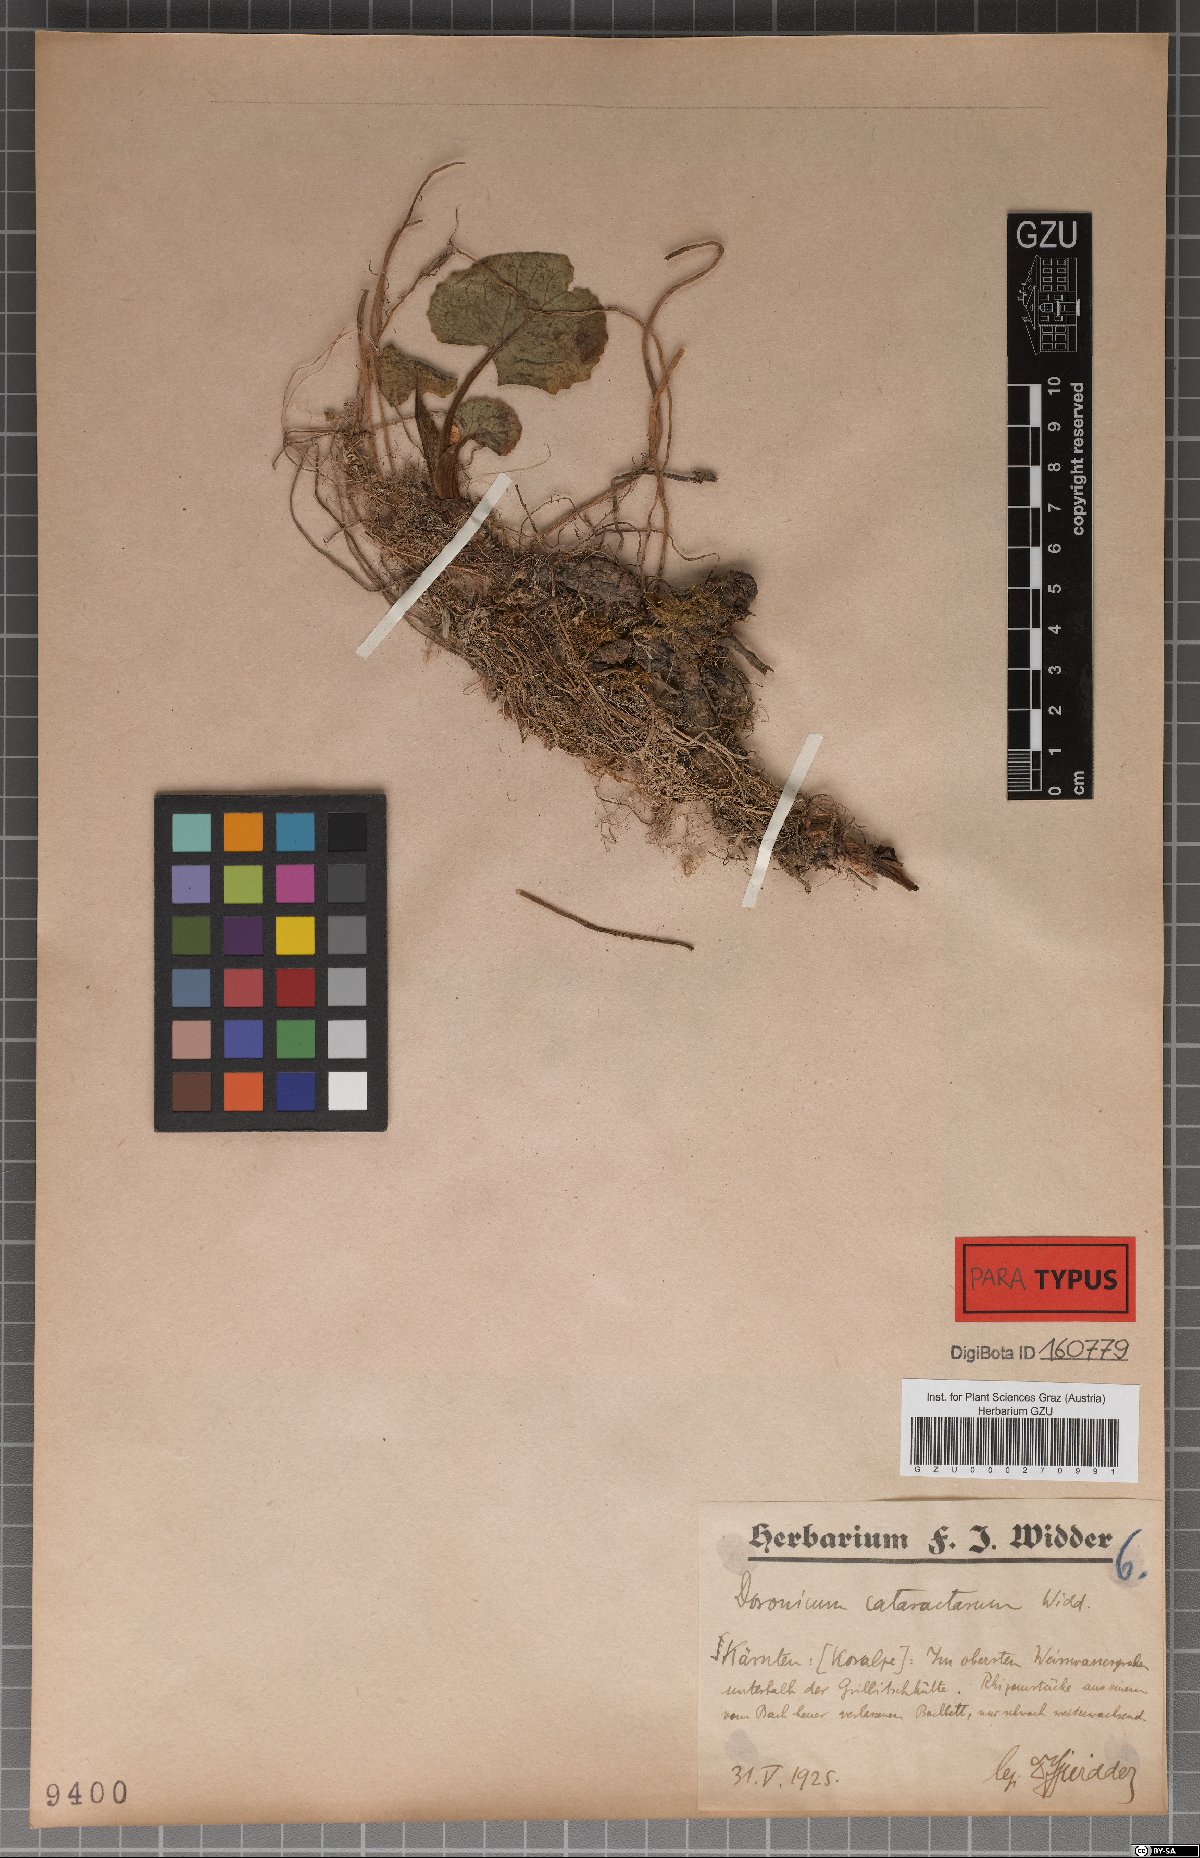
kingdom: Plantae
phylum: Tracheophyta
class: Magnoliopsida
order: Asterales
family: Asteraceae
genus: Doronicum
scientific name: Doronicum cataractarum
